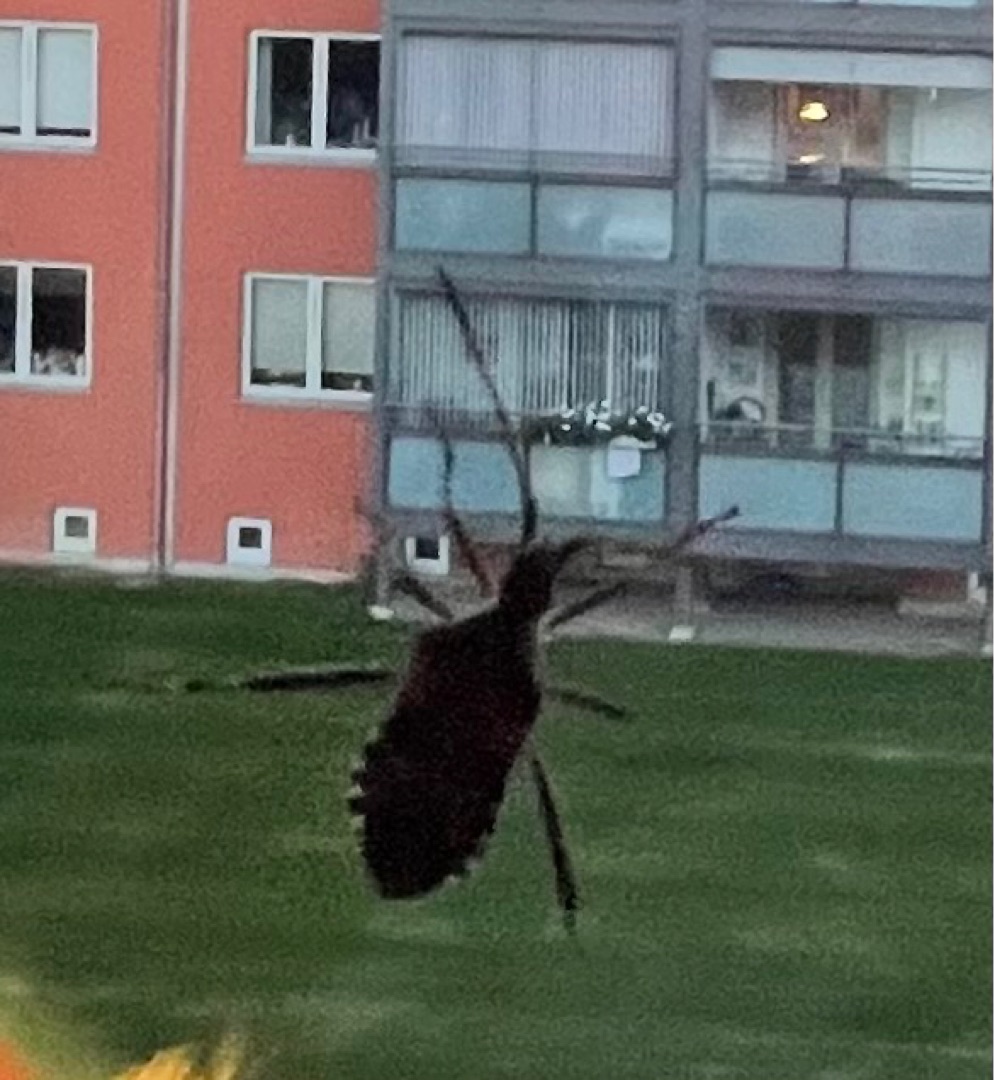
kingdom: Animalia
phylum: Arthropoda
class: Insecta
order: Hemiptera
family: Coreidae
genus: Leptoglossus
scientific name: Leptoglossus occidentalis
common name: Amerikansk fyrretæge
